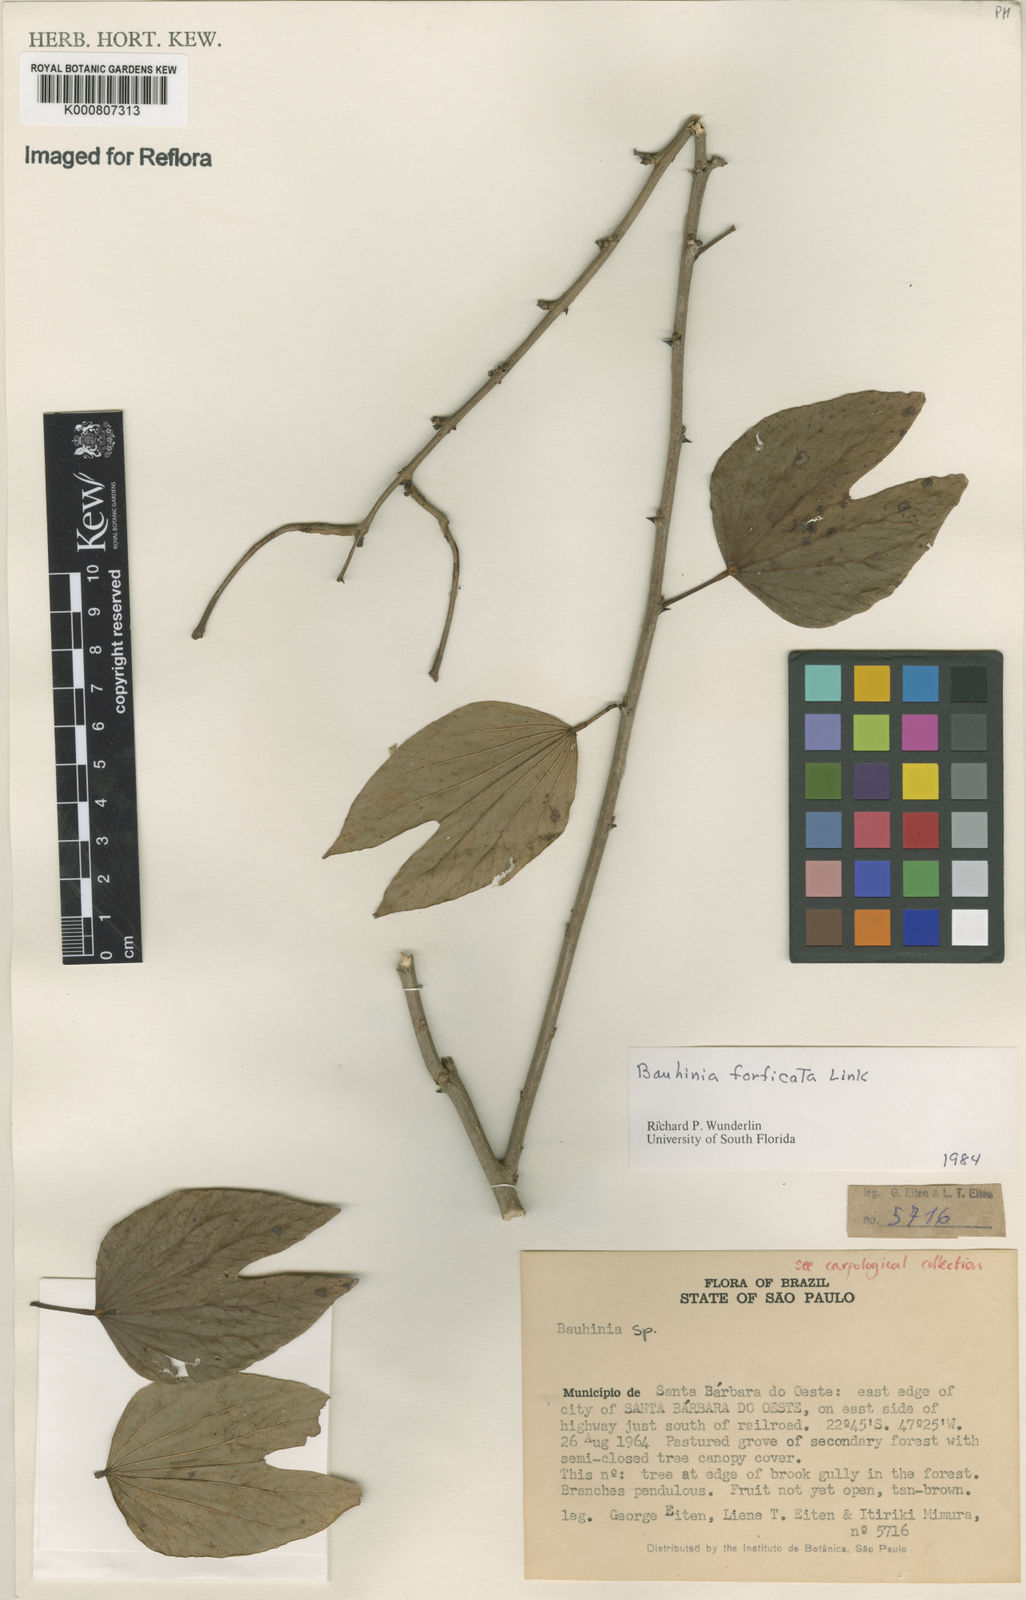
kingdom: Plantae
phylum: Tracheophyta
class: Magnoliopsida
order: Fabales
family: Fabaceae
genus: Bauhinia
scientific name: Bauhinia forficata
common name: Orchid tree
